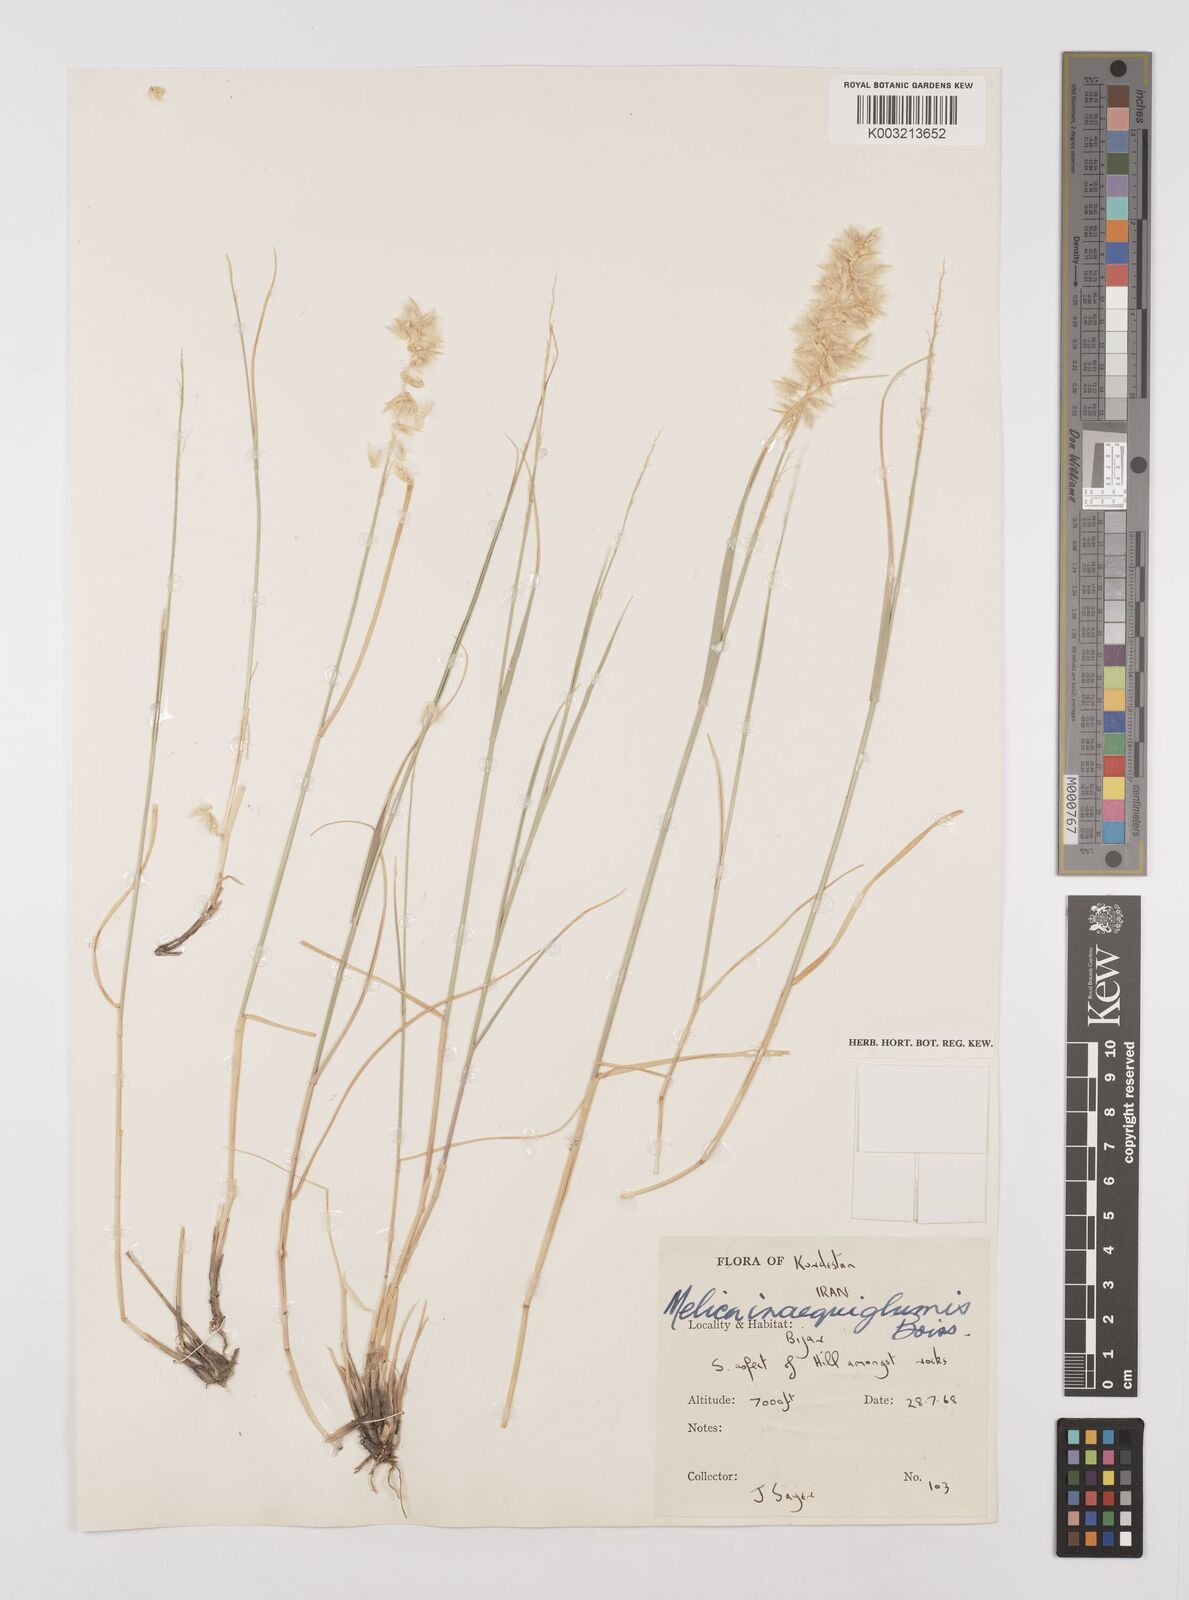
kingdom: Plantae
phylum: Tracheophyta
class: Liliopsida
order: Poales
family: Poaceae
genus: Melica
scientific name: Melica ciliata
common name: Hairy melicgrass
